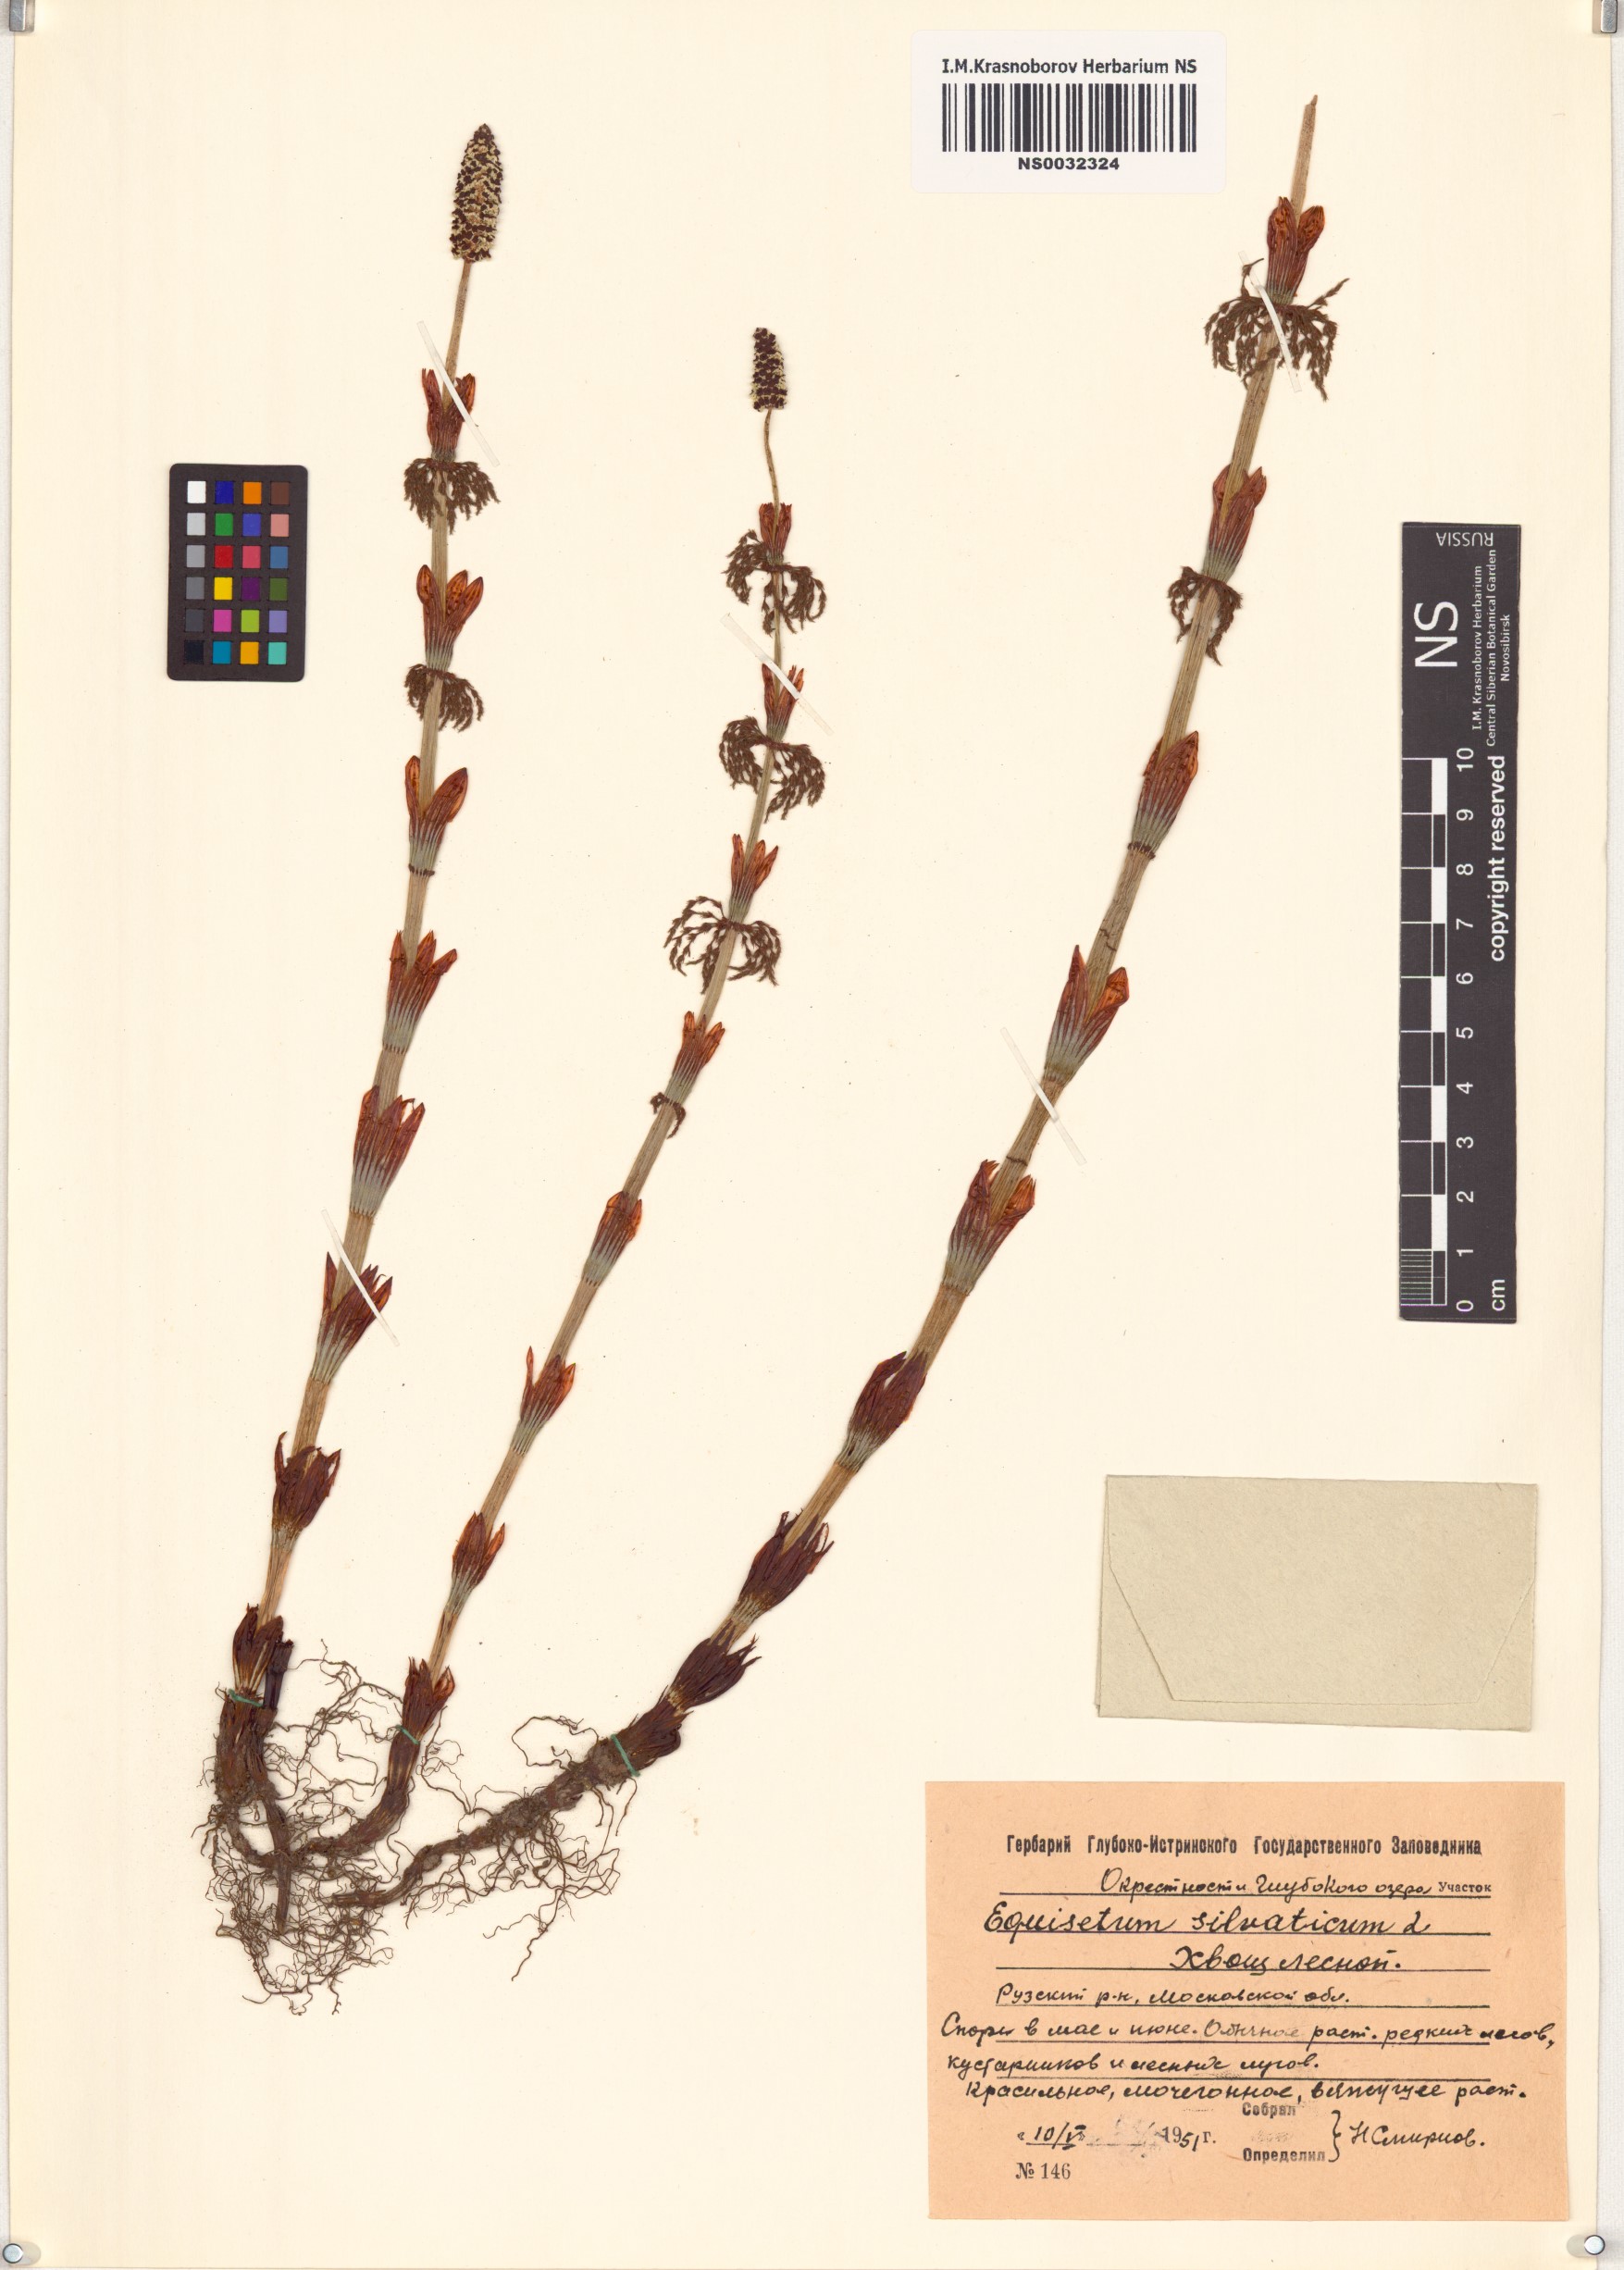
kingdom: Plantae
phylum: Tracheophyta
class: Polypodiopsida
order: Equisetales
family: Equisetaceae
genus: Equisetum
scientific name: Equisetum sylvaticum
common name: Wood horsetail
